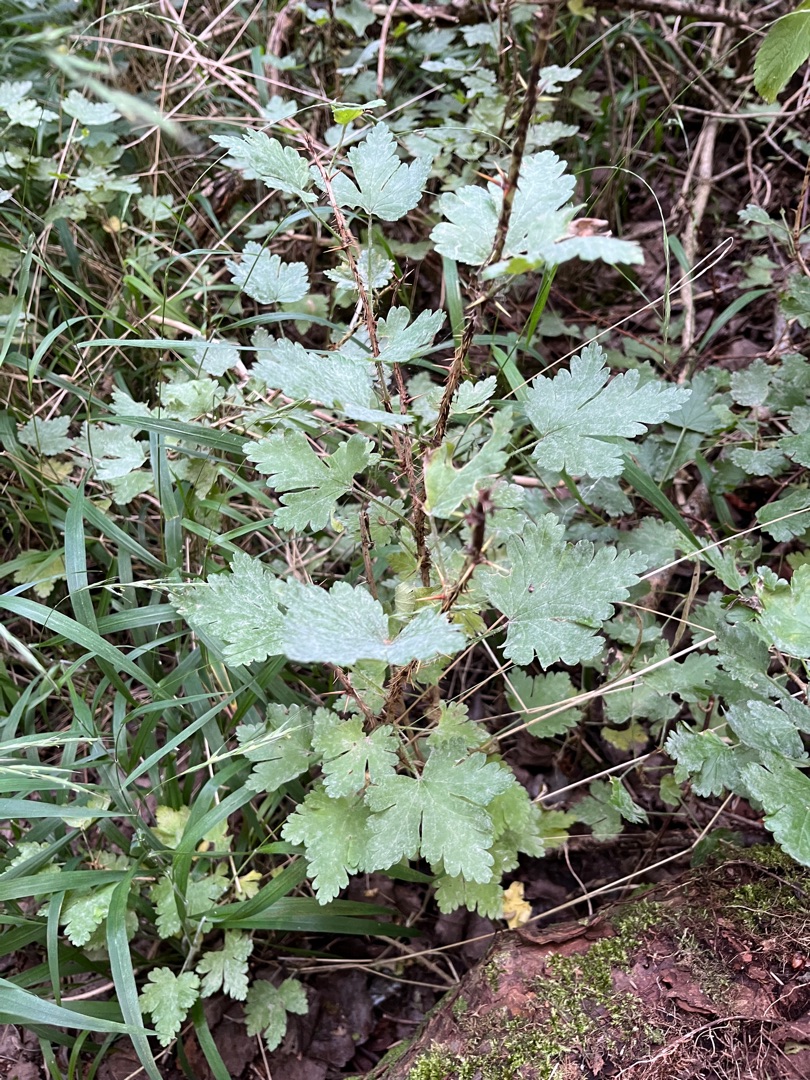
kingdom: Plantae
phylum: Tracheophyta
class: Magnoliopsida
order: Saxifragales
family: Grossulariaceae
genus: Ribes
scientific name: Ribes uva-crispa
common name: Stikkelsbær
